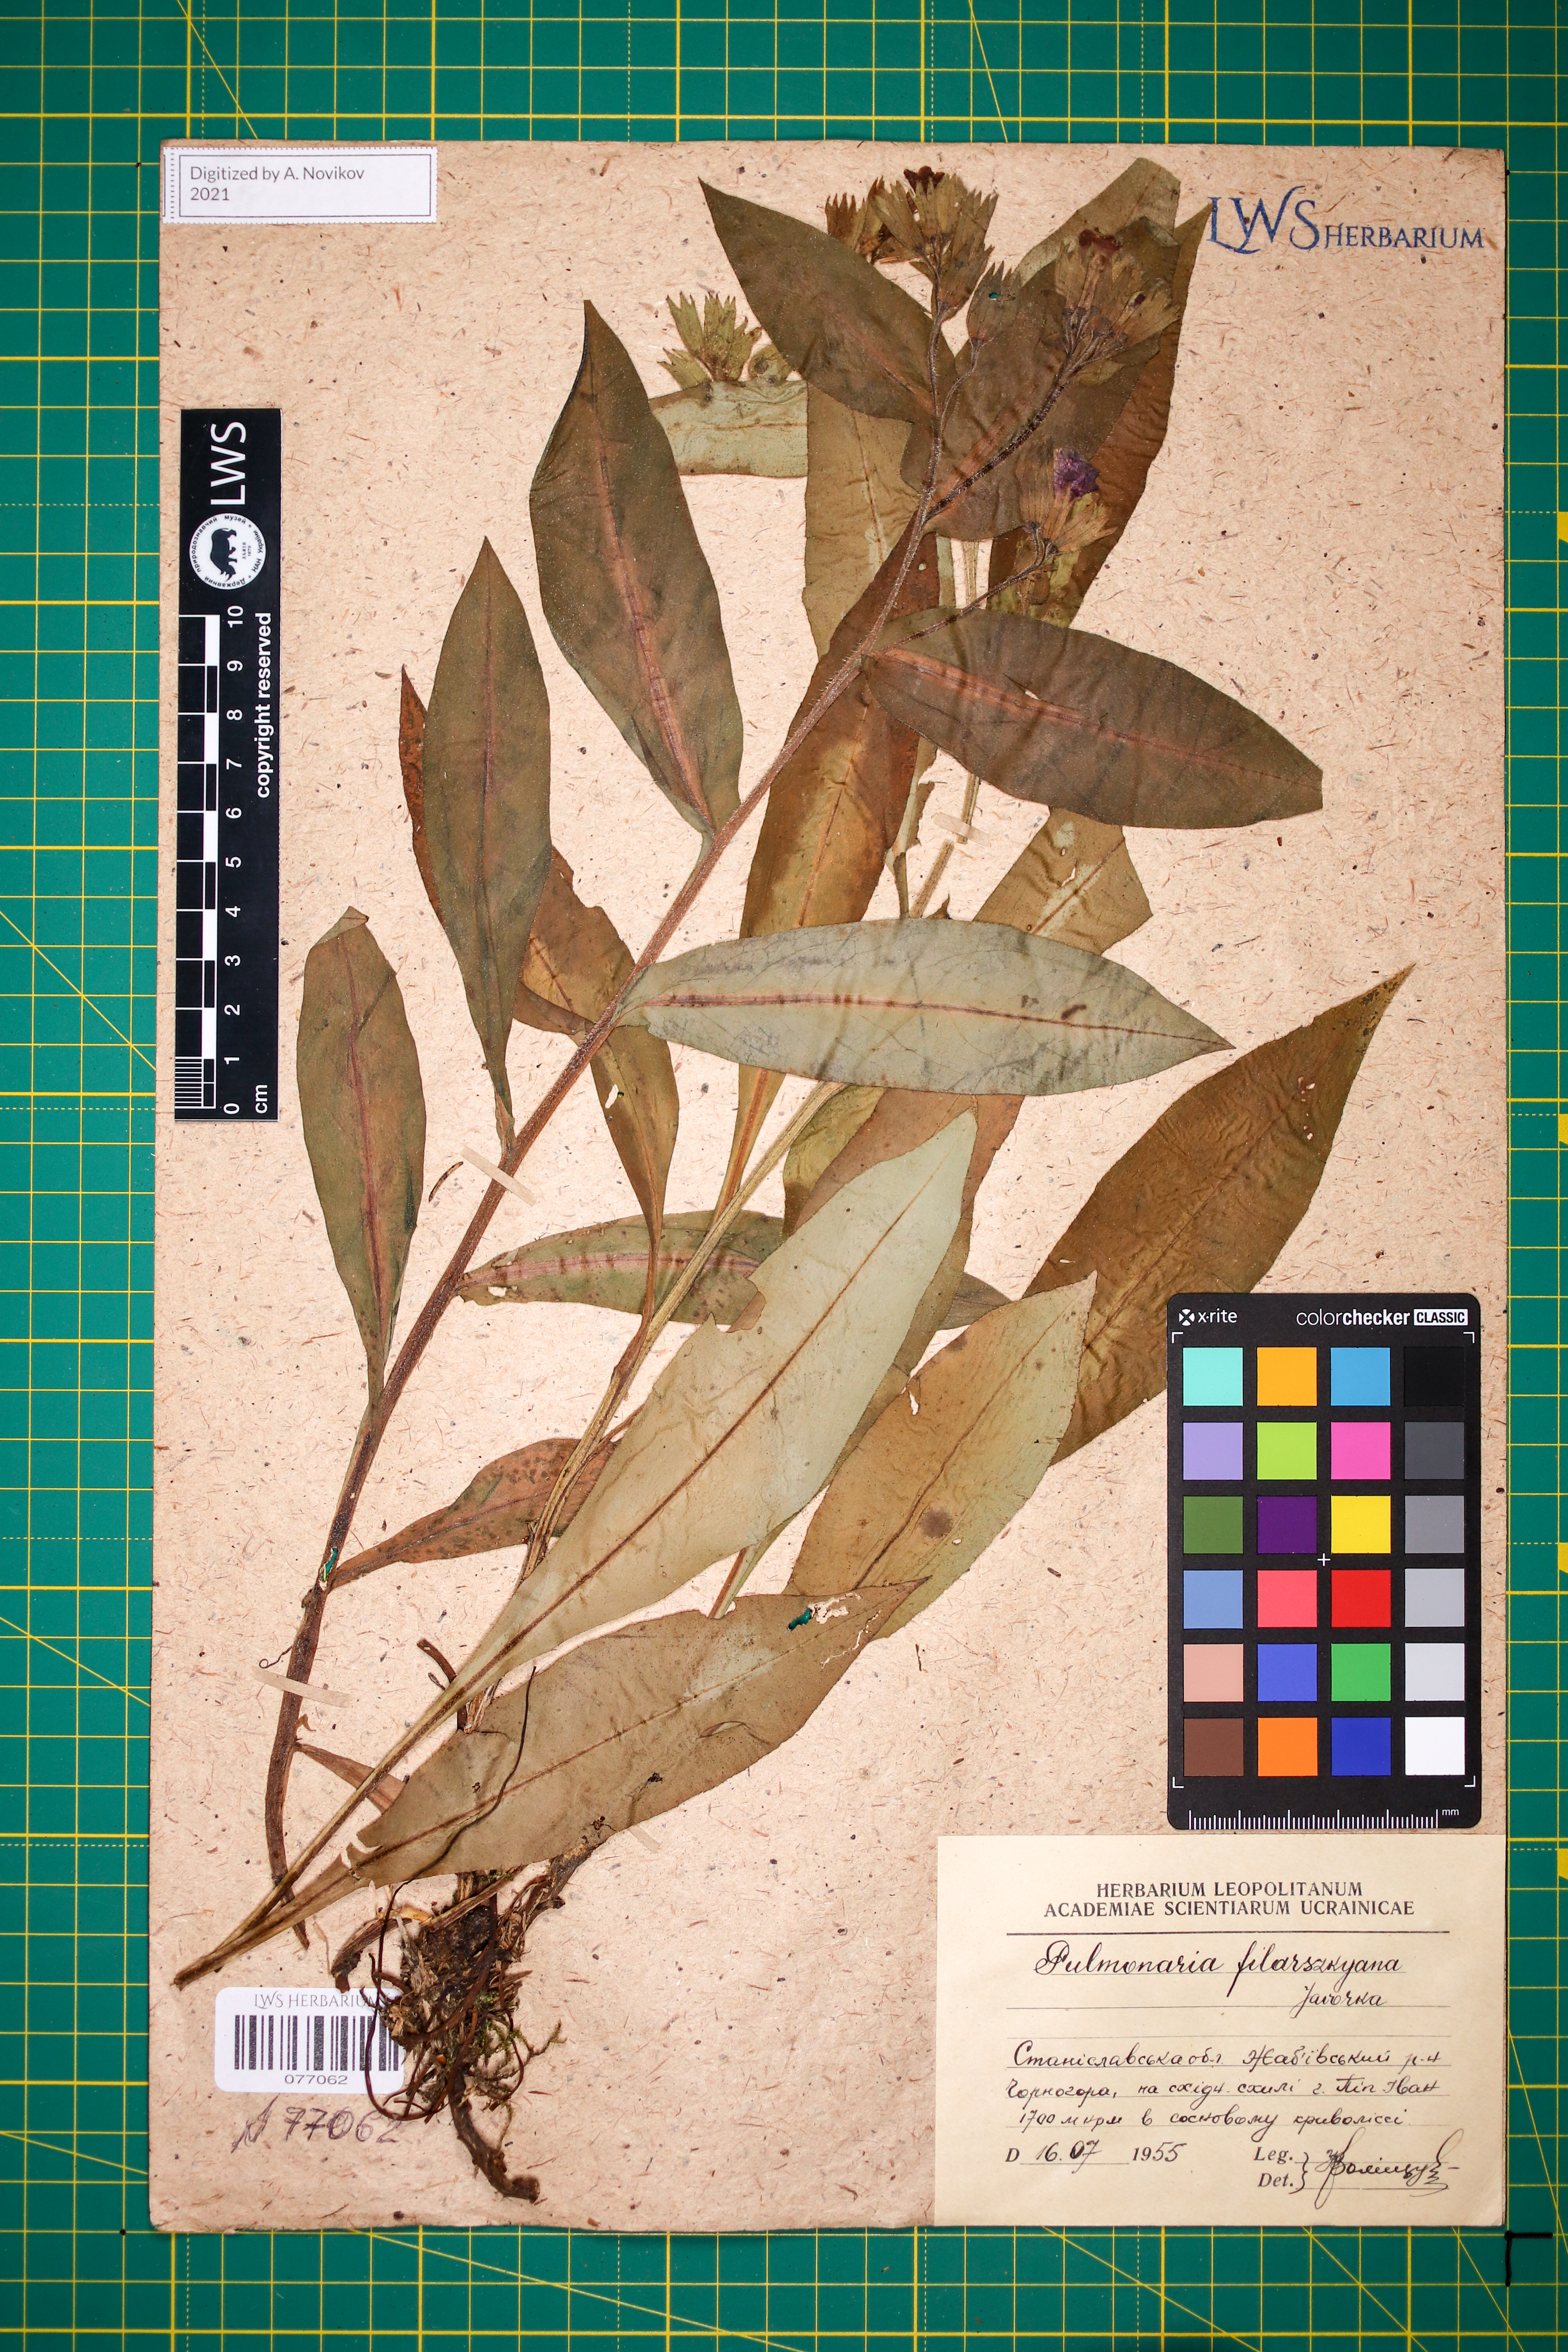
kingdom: Plantae
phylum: Tracheophyta
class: Magnoliopsida
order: Boraginales
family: Boraginaceae
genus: Pulmonaria
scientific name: Pulmonaria filarszkyana
